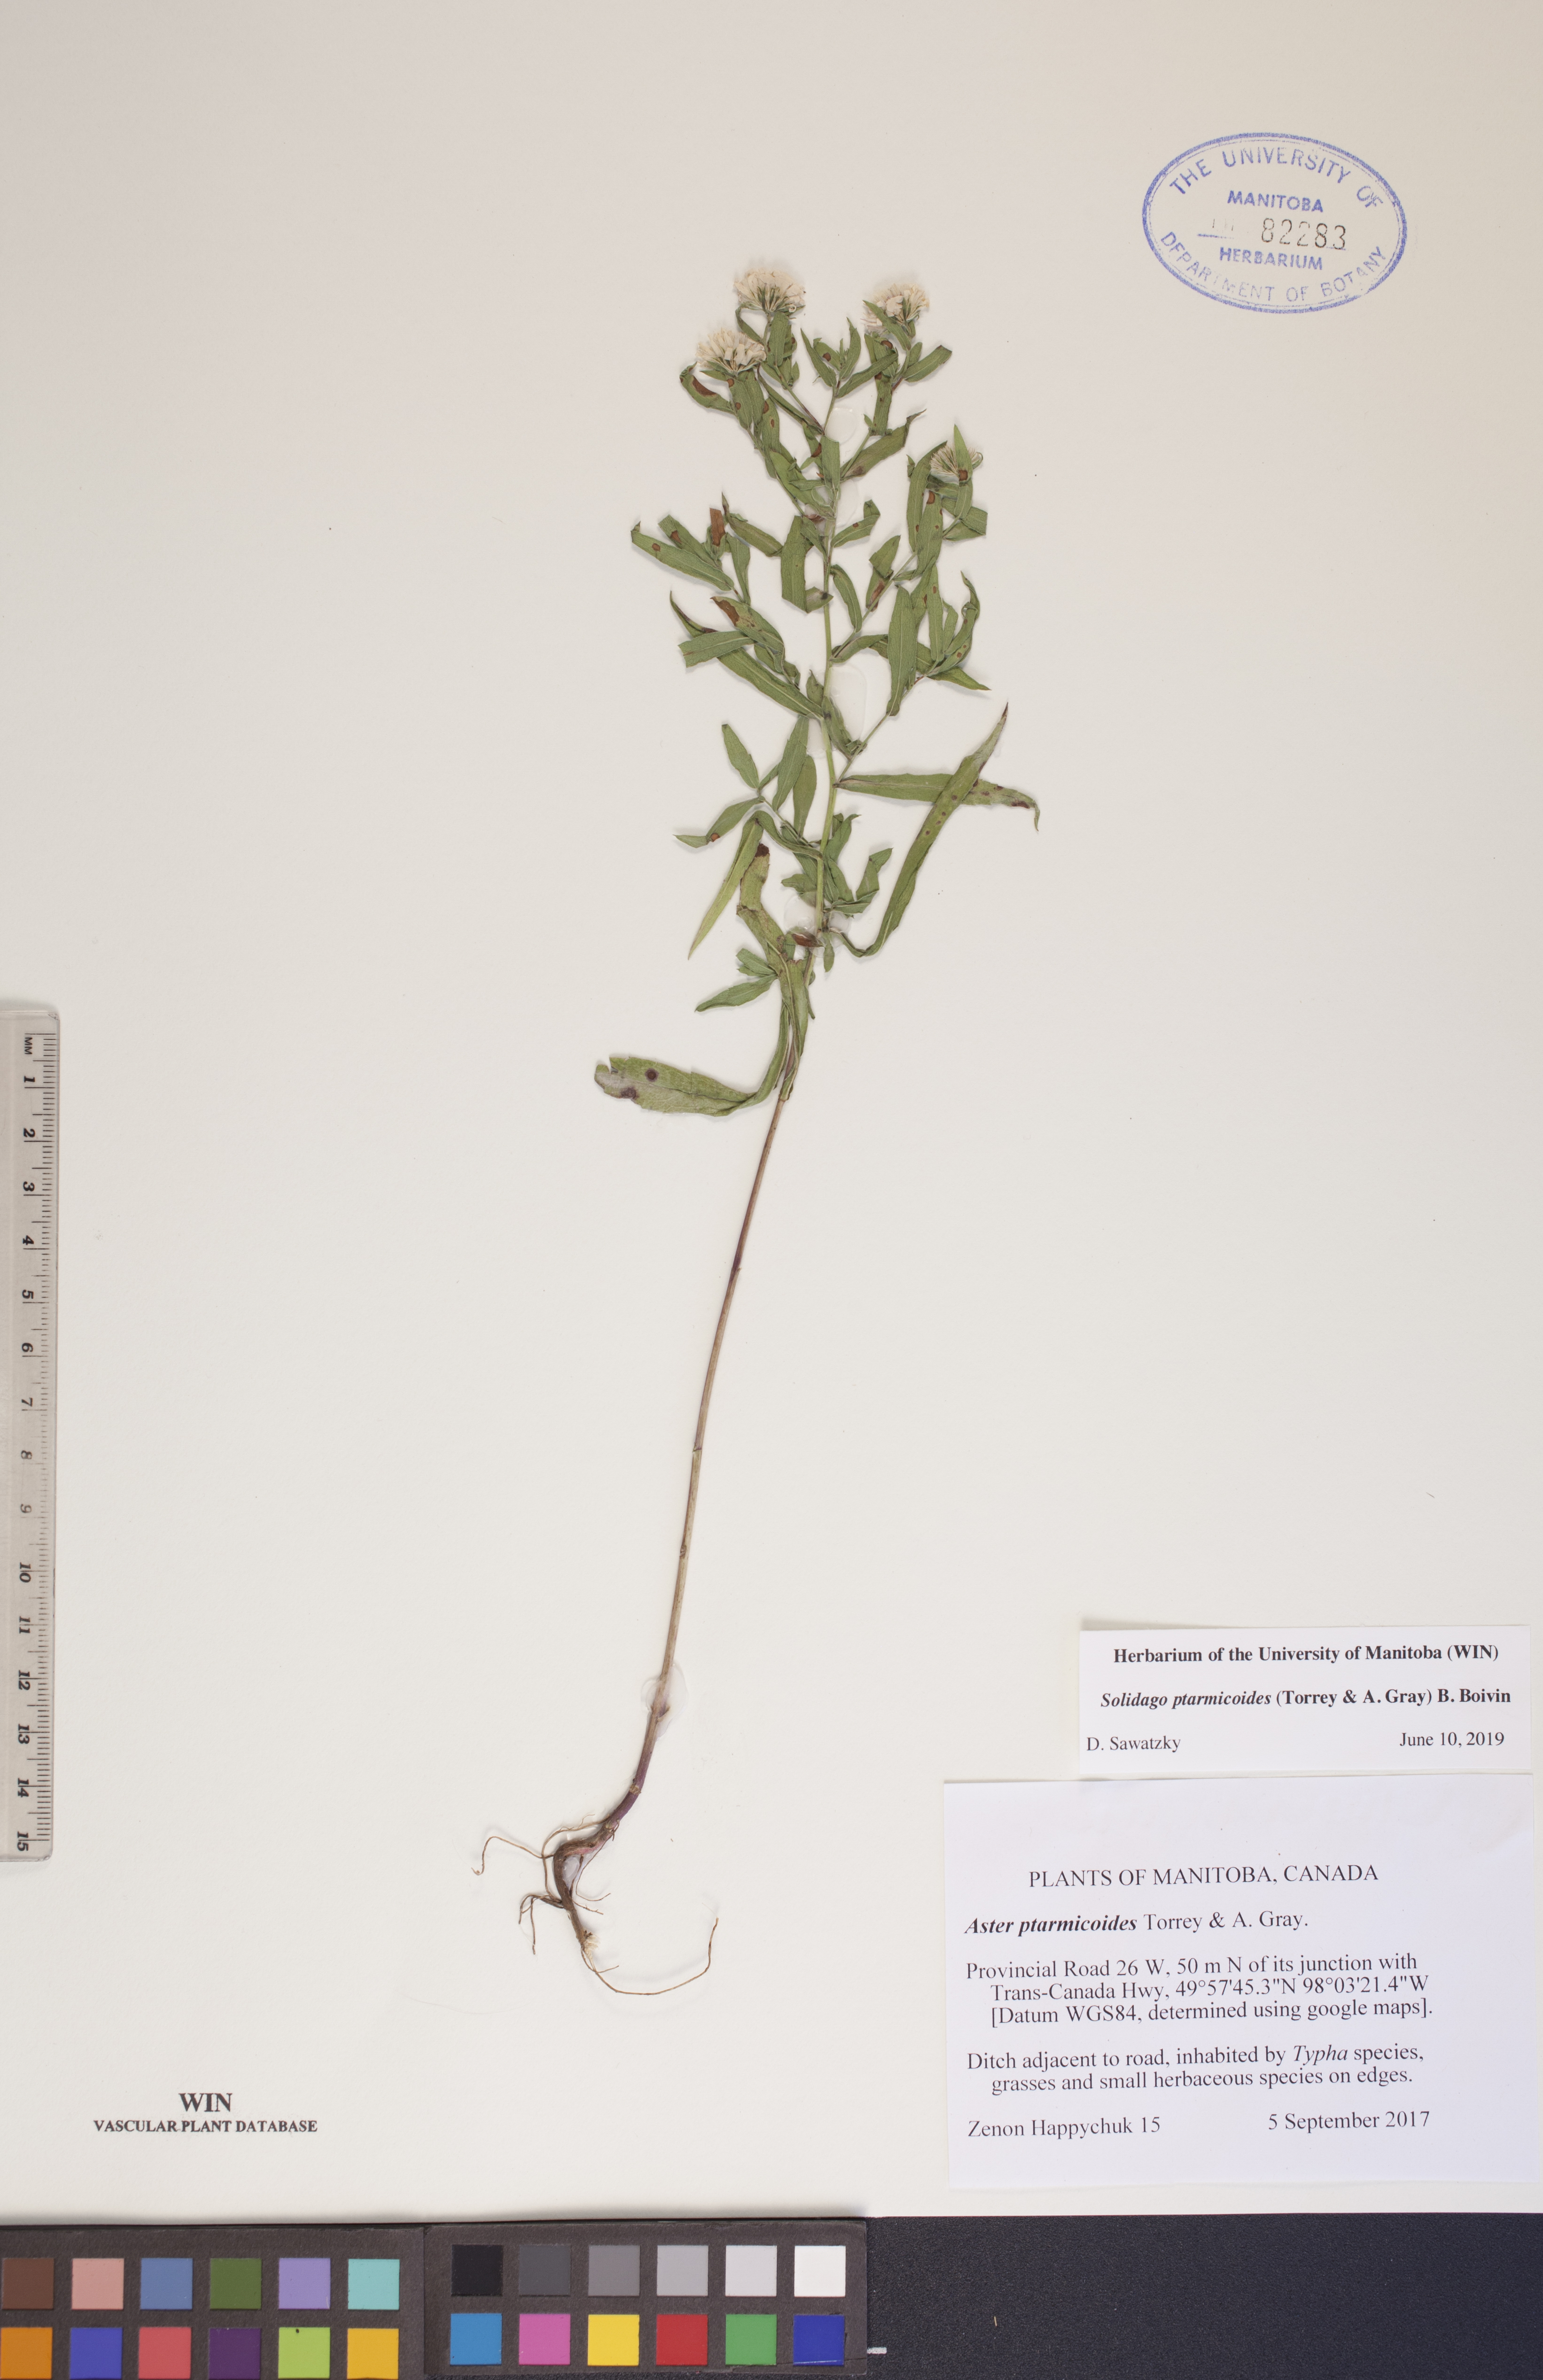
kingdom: Plantae
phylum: Tracheophyta
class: Magnoliopsida
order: Asterales
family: Asteraceae
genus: Solidago
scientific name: Solidago ptarmicoides
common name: White flat-top goldenrod
